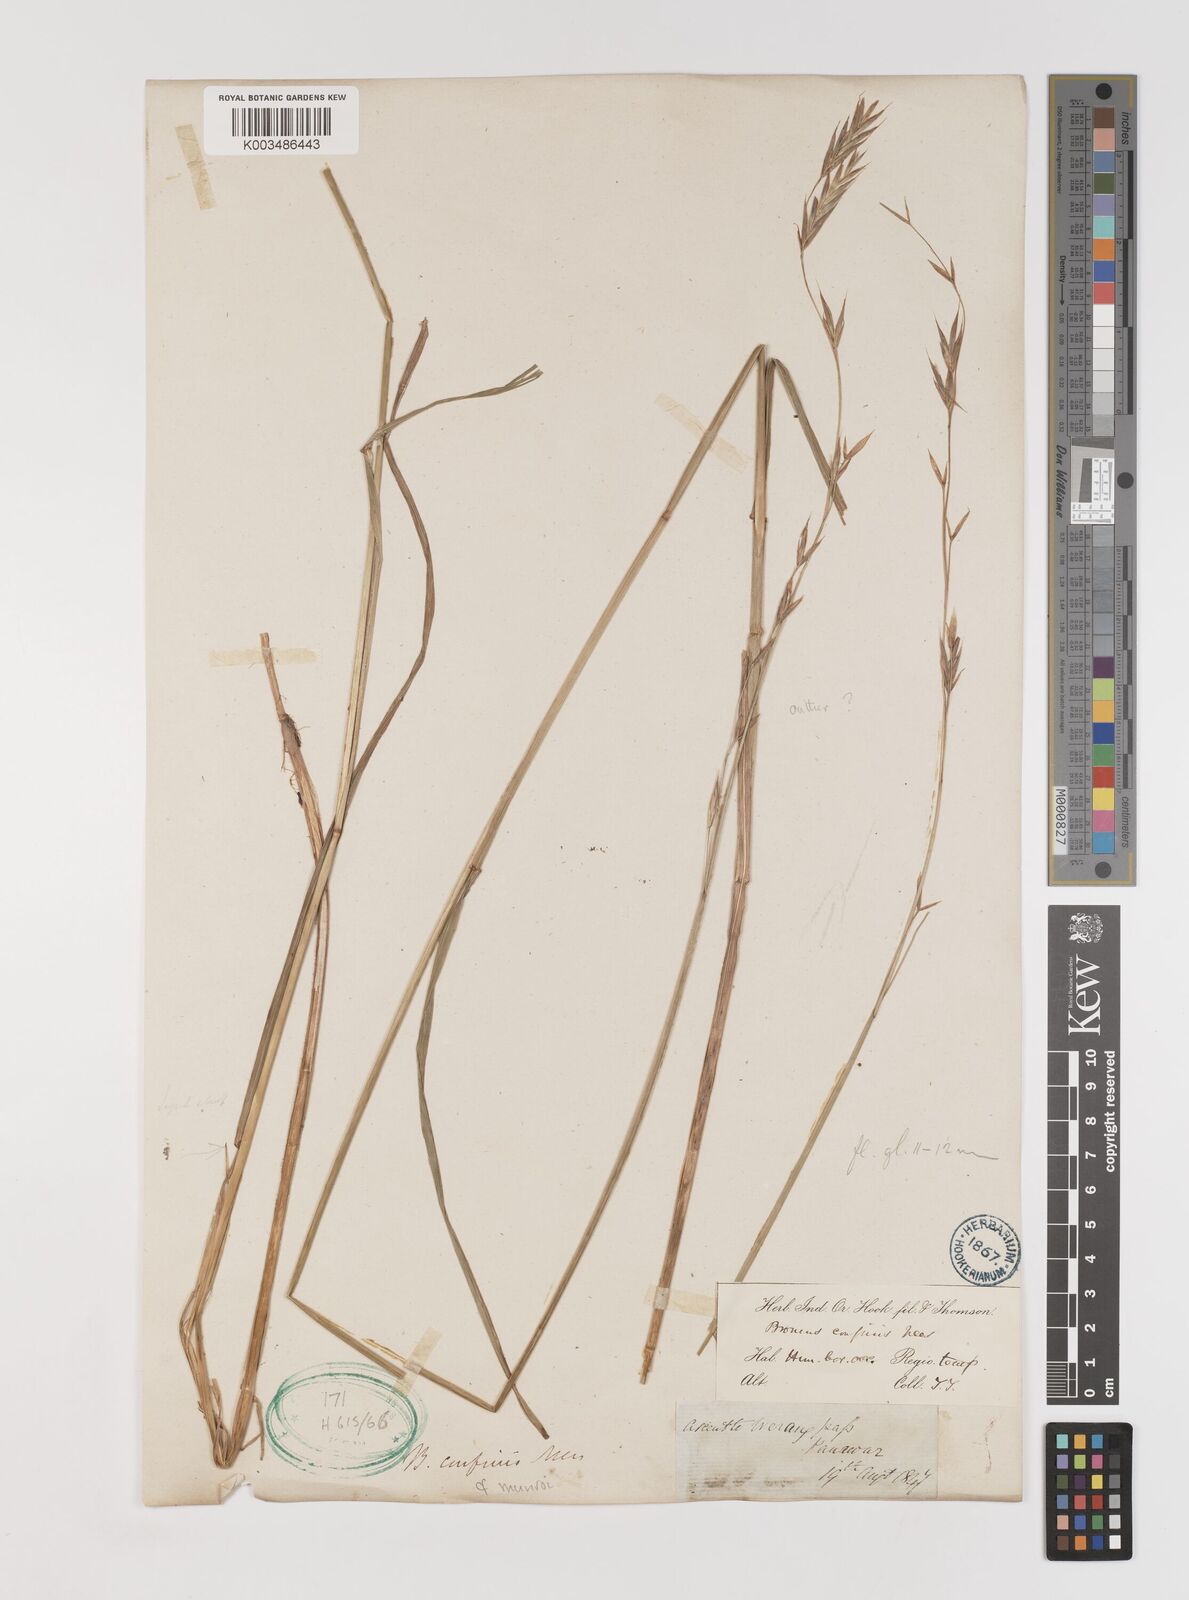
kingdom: Plantae
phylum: Tracheophyta
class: Liliopsida
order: Poales
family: Poaceae
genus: Bromus
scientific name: Bromus confinis
